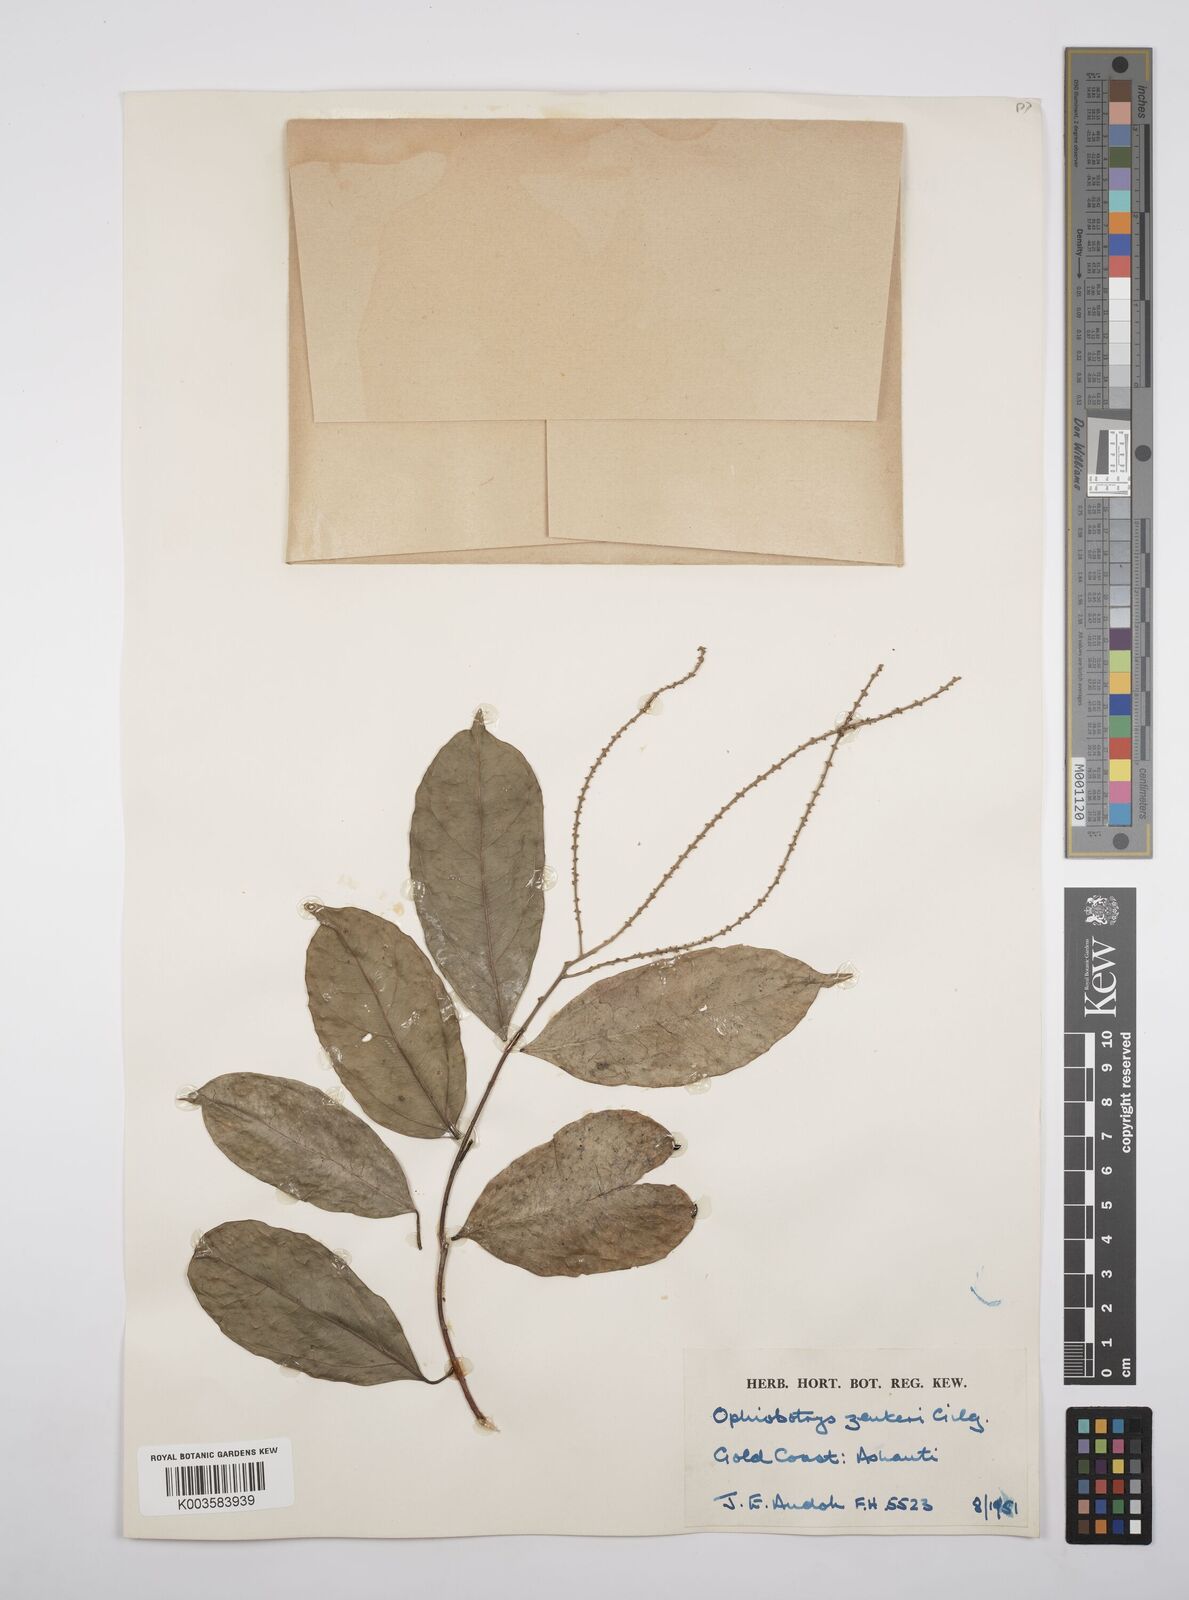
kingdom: Plantae
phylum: Tracheophyta
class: Magnoliopsida
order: Malpighiales
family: Salicaceae
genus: Ophiobotrys
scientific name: Ophiobotrys zenkeri
